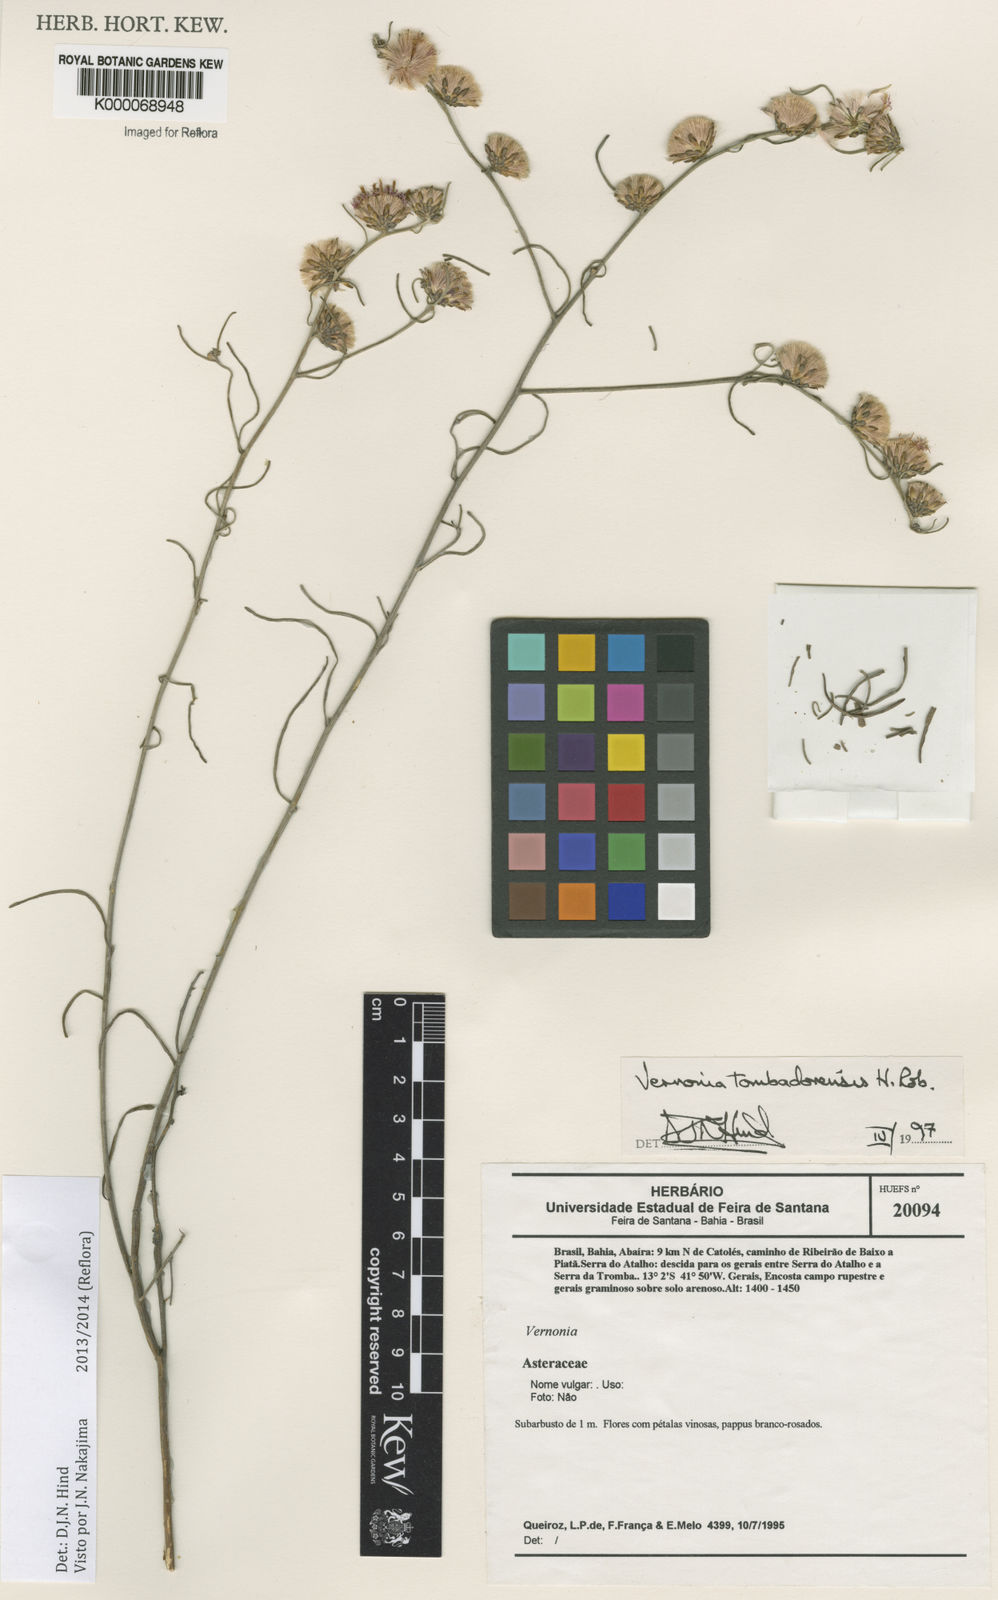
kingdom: Plantae
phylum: Tracheophyta
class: Magnoliopsida
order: Asterales
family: Asteraceae
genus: Lepidaploa
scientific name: Lepidaploa tombadorensis
